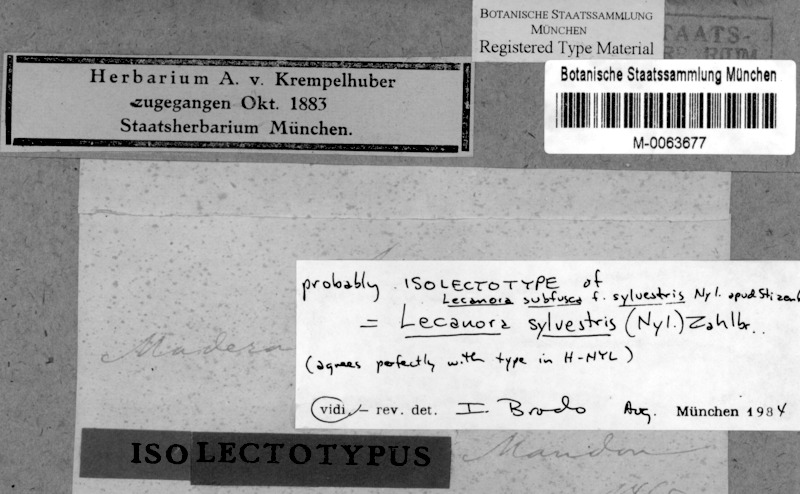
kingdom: Fungi
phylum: Ascomycota
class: Lecanoromycetes
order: Lecanorales
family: Lecanoraceae
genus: Lecanora
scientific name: Lecanora sylvestris
